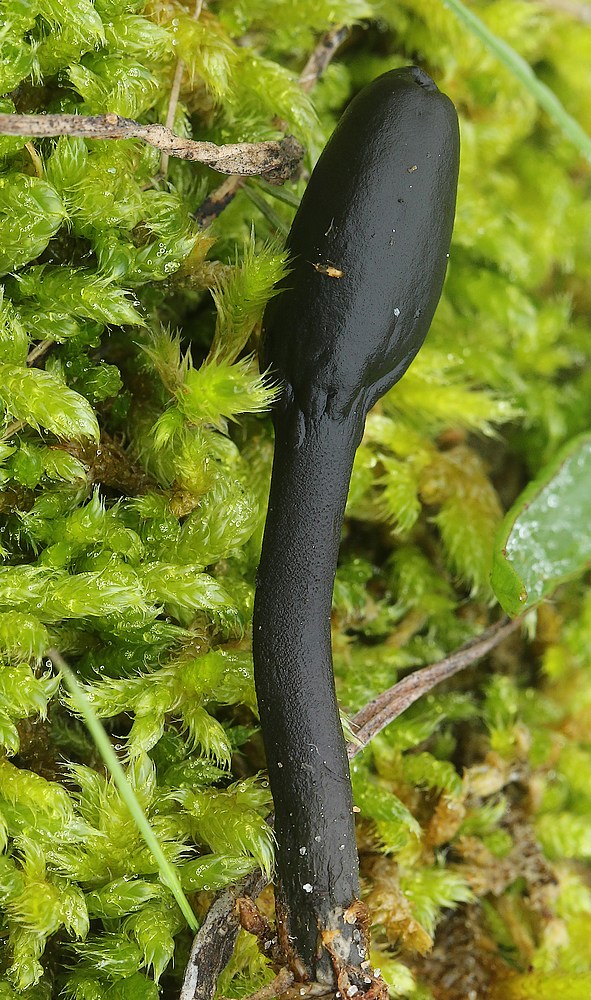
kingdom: Fungi
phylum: Ascomycota
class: Geoglossomycetes
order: Geoglossales
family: Geoglossaceae
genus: Geoglossum
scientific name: Geoglossum cookeianum
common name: bred jordtunge
